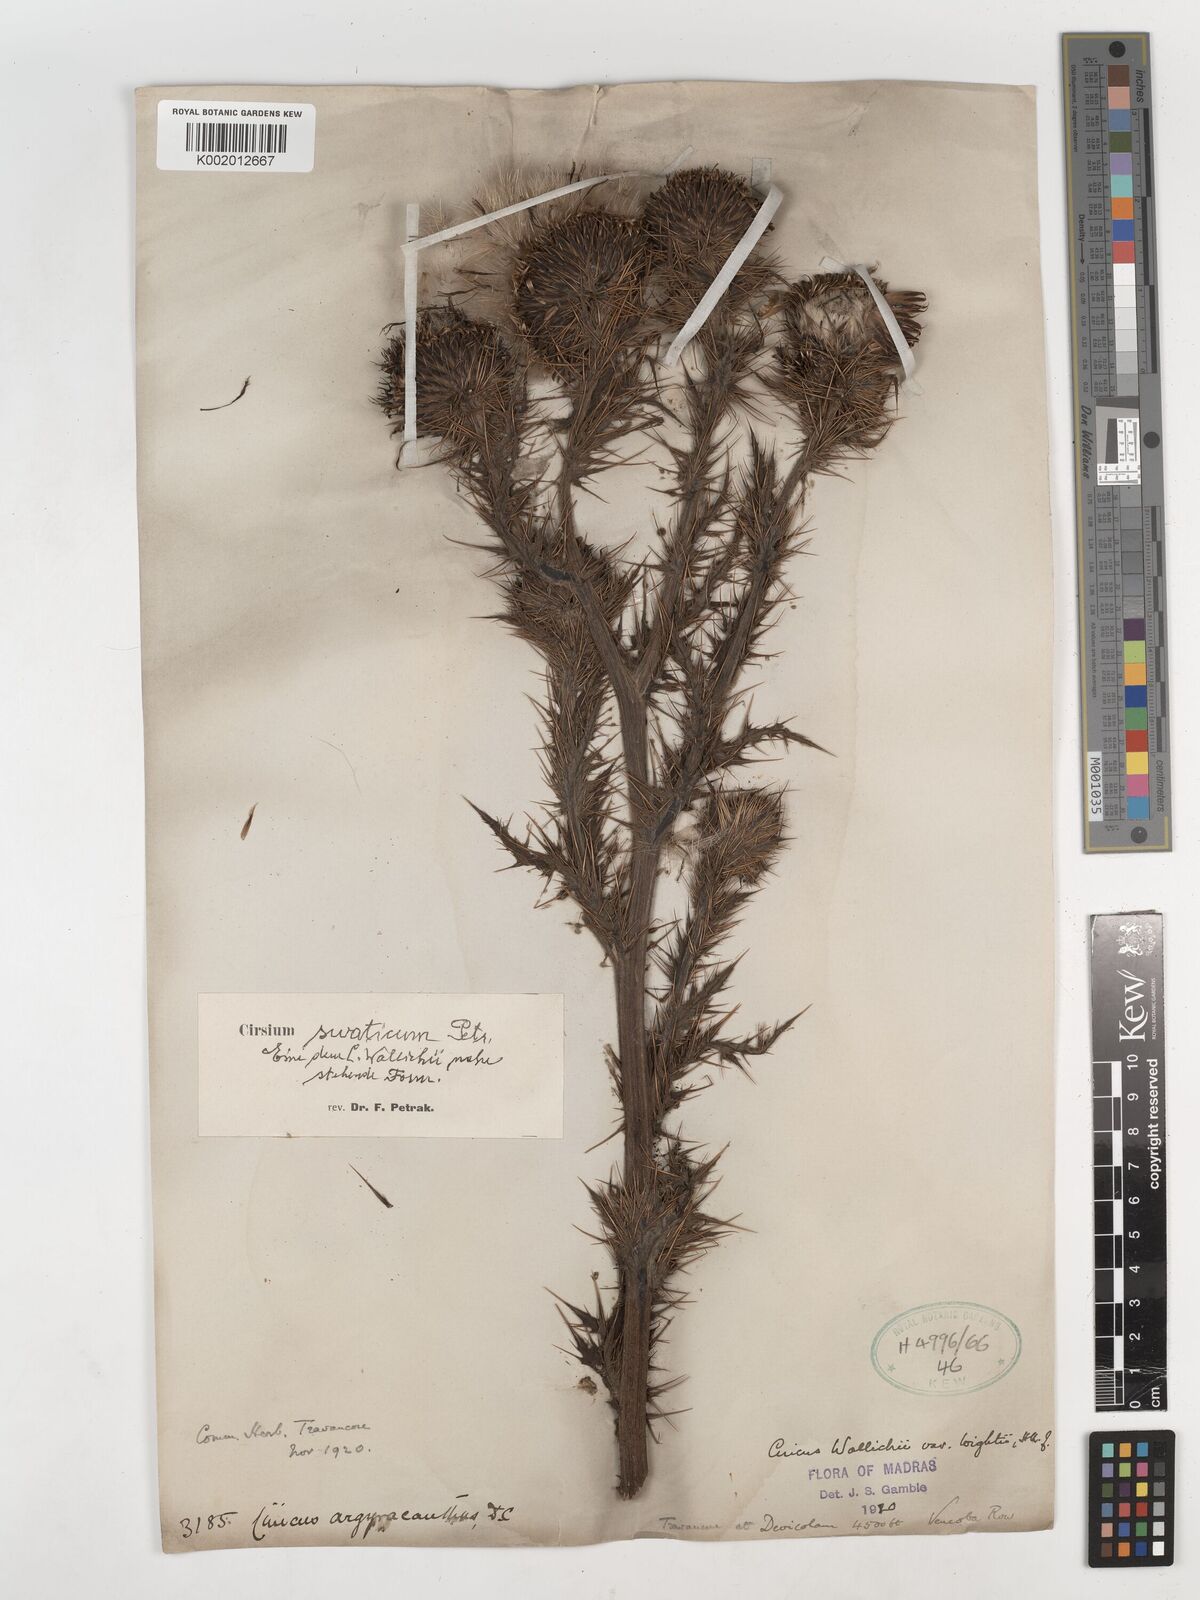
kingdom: Plantae
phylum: Tracheophyta
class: Magnoliopsida
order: Asterales
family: Asteraceae
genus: Cirsium
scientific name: Cirsium swaticum
